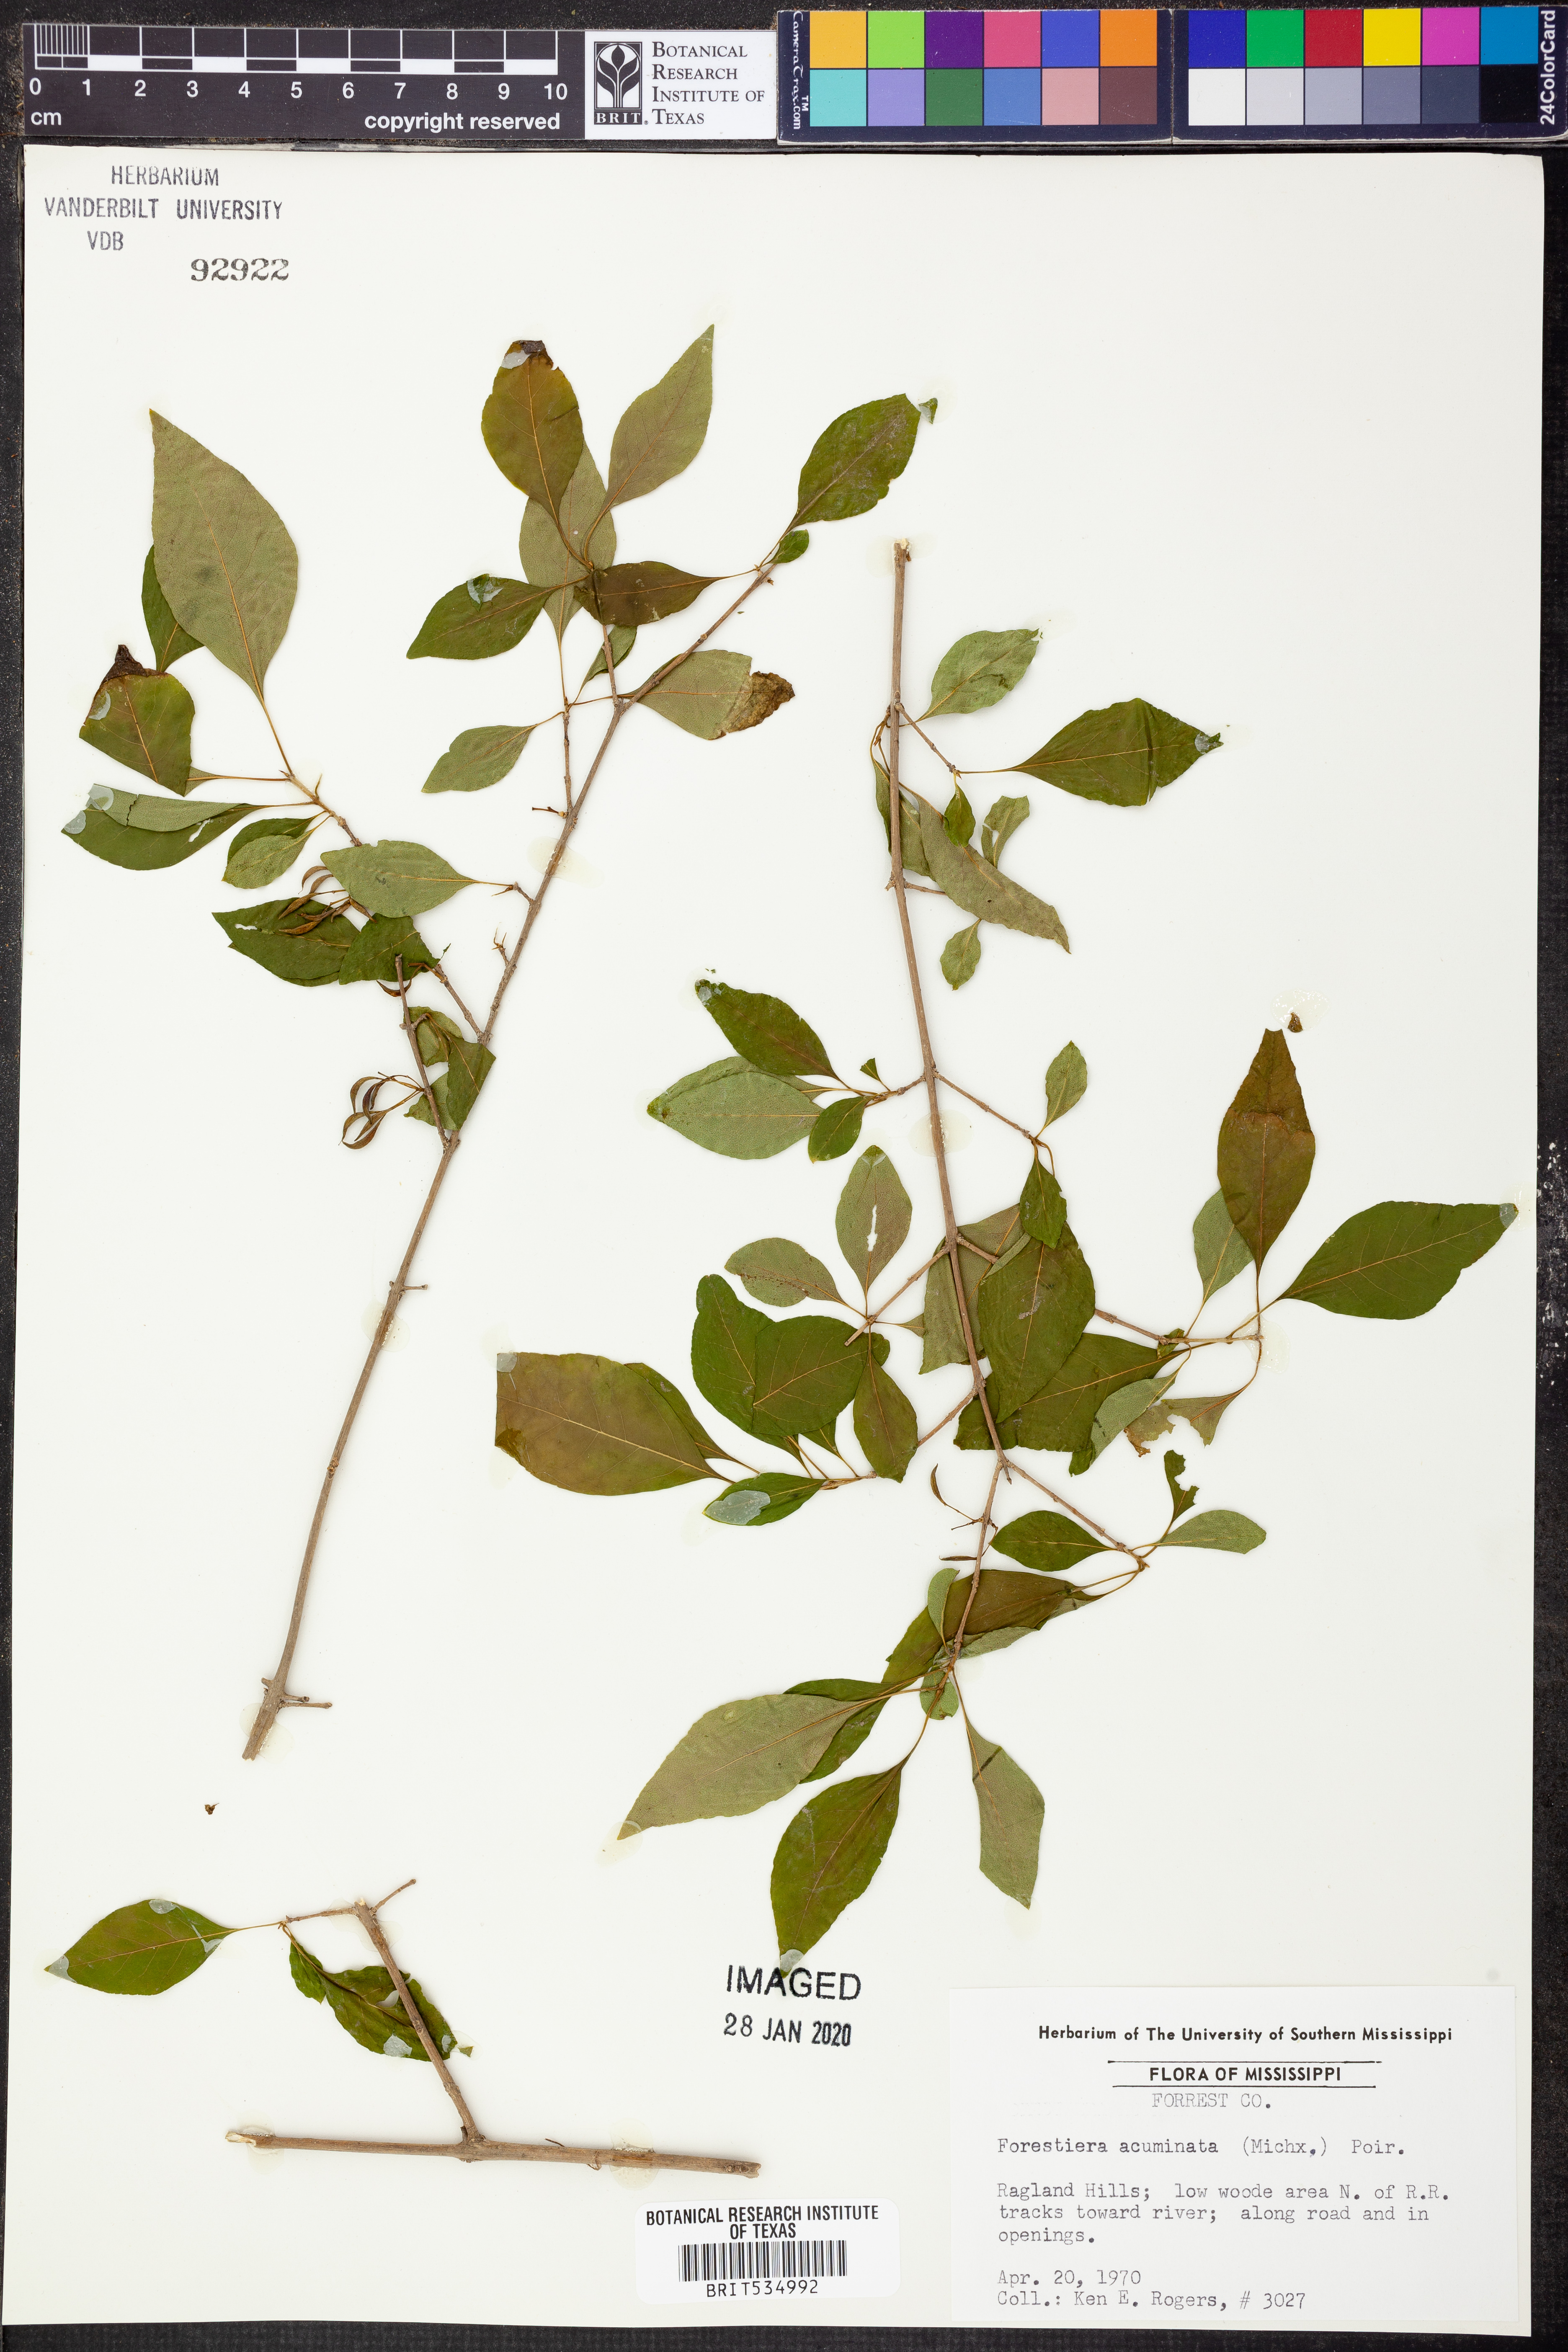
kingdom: Plantae
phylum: Tracheophyta
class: Magnoliopsida
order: Lamiales
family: Oleaceae
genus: Forestiera
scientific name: Forestiera acuminata
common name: Swamp-privet
